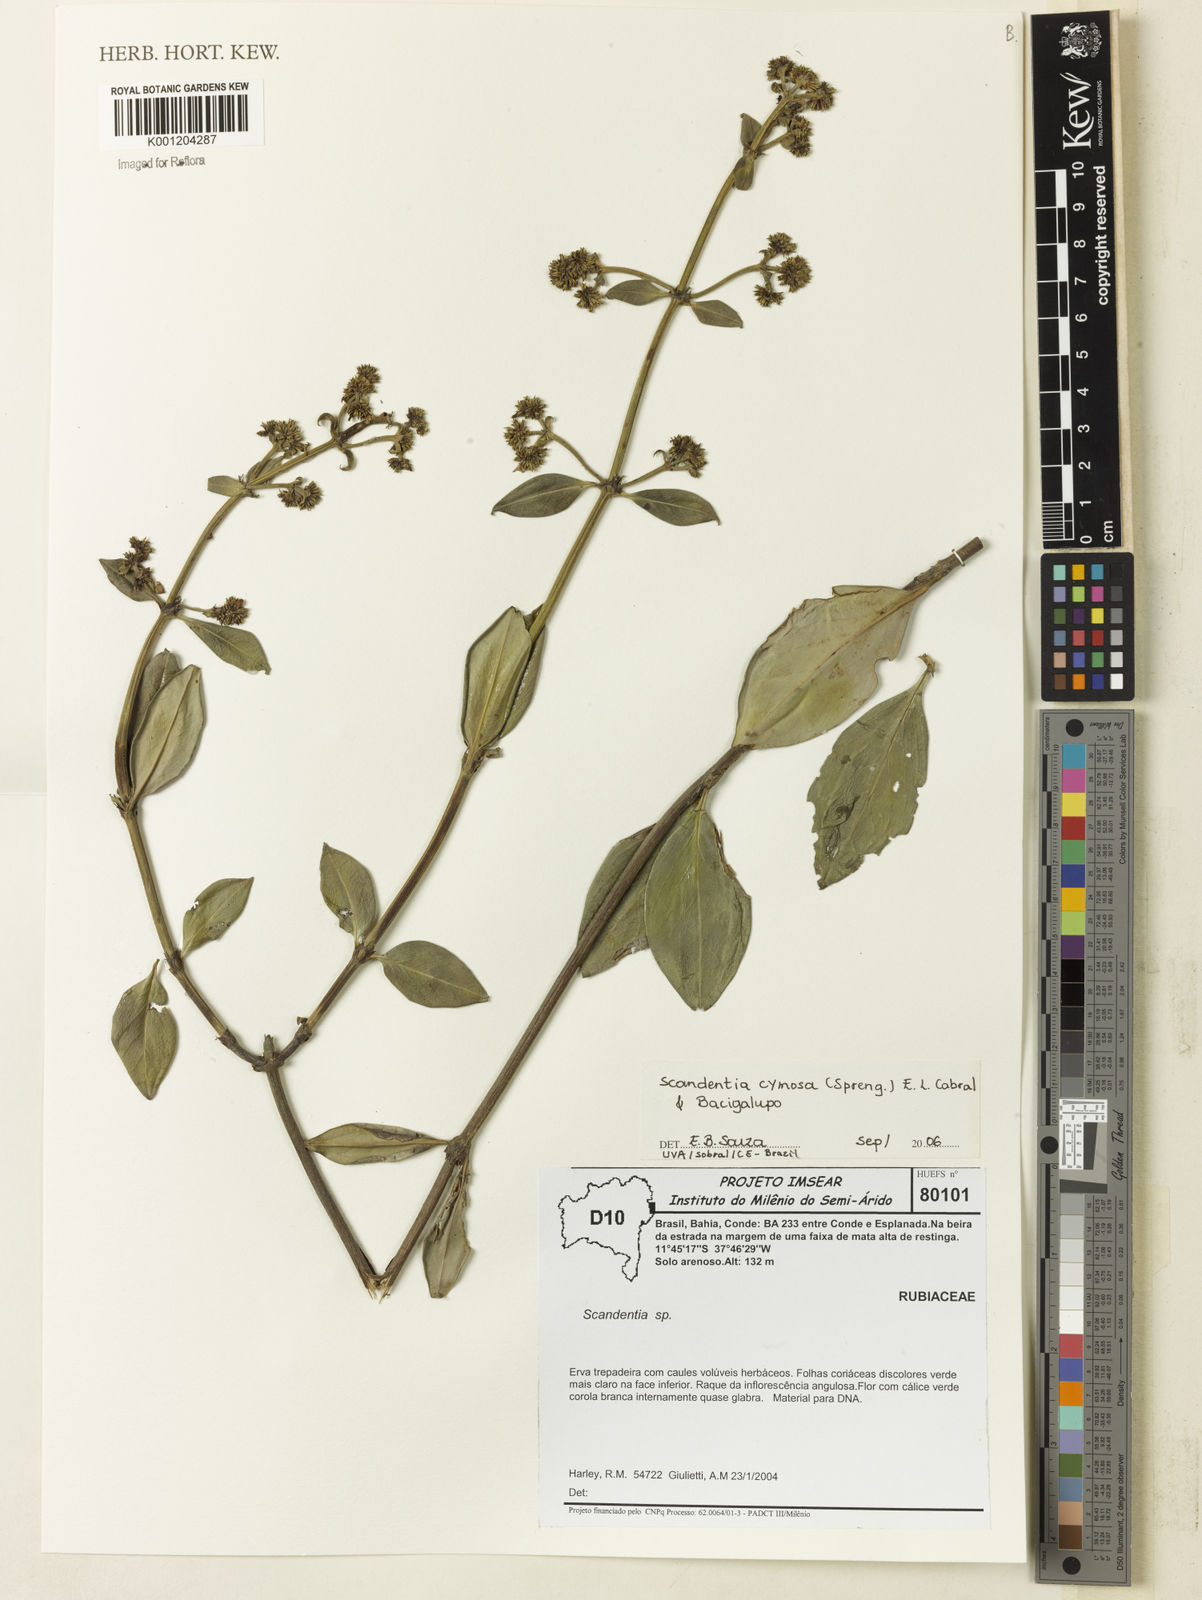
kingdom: Plantae
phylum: Tracheophyta
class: Magnoliopsida
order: Gentianales
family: Rubiaceae
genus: Denscantia
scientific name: Denscantia cymosa
